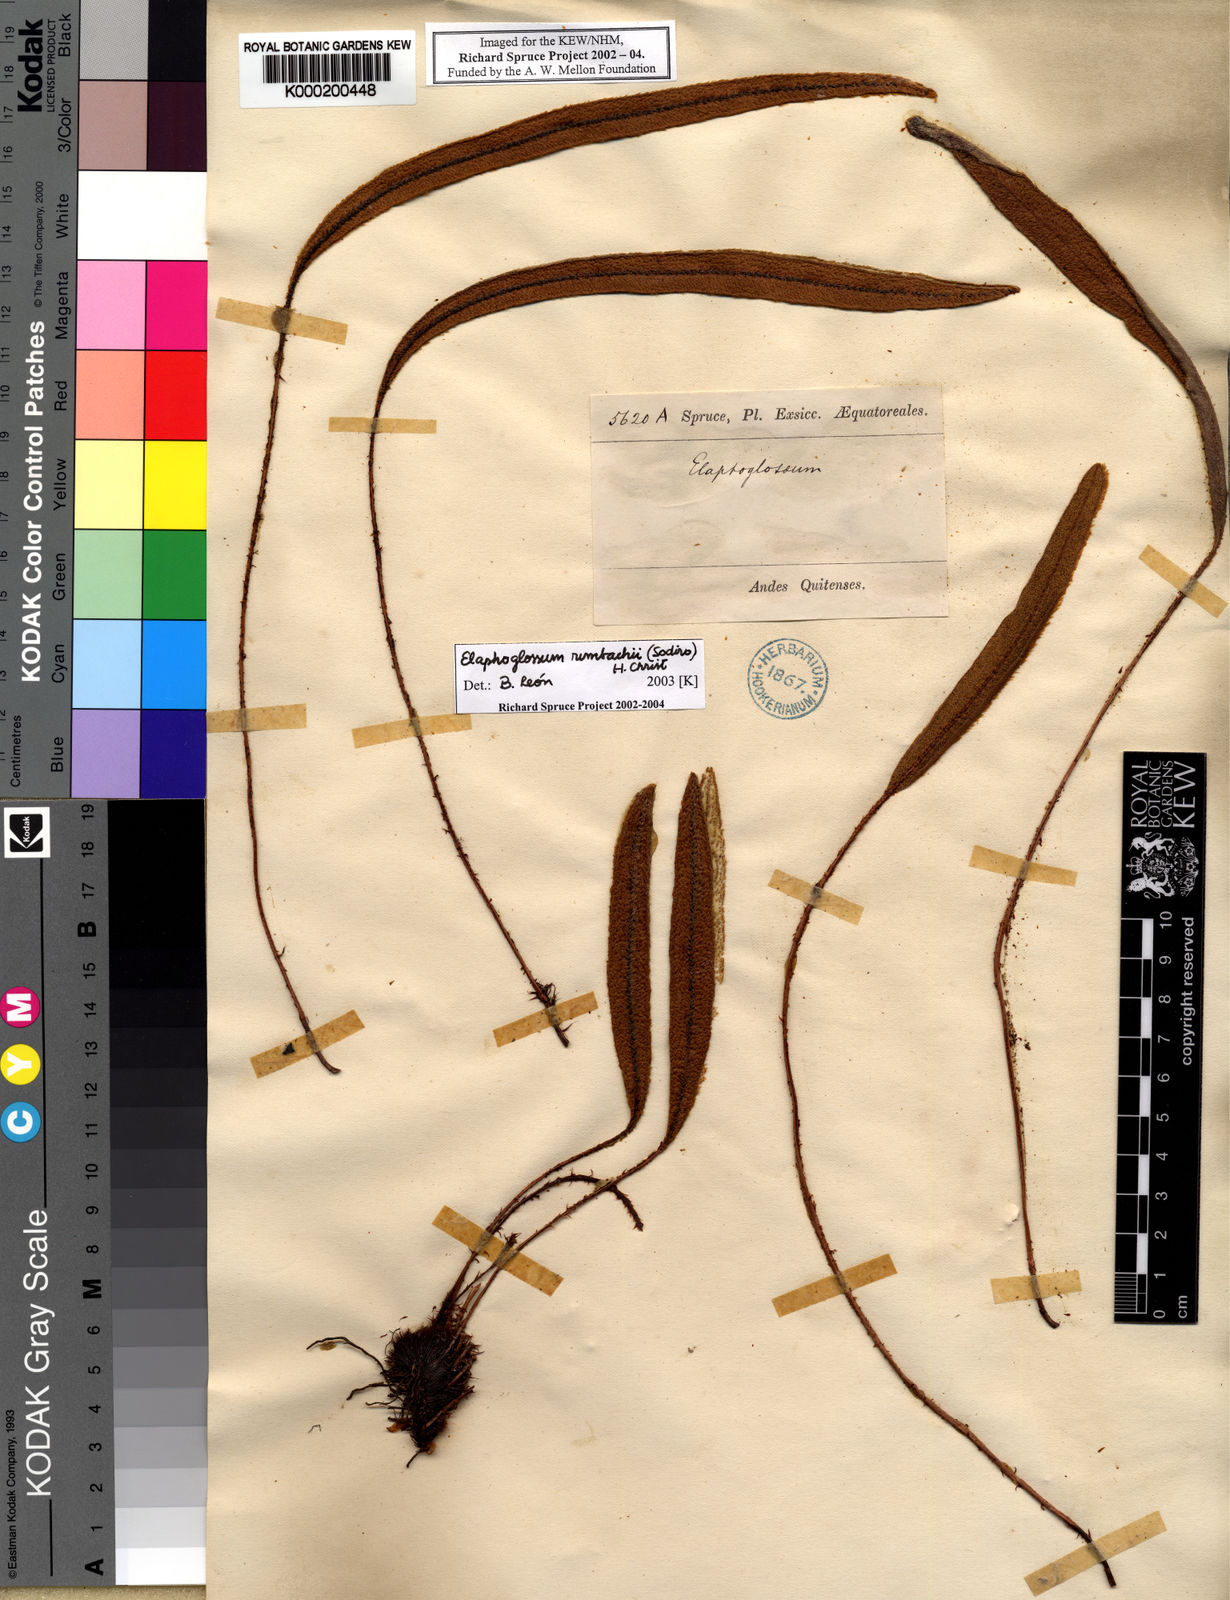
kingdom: Plantae
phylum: Tracheophyta
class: Polypodiopsida
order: Polypodiales
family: Dryopteridaceae
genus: Elaphoglossum
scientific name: Elaphoglossum rimbachii
